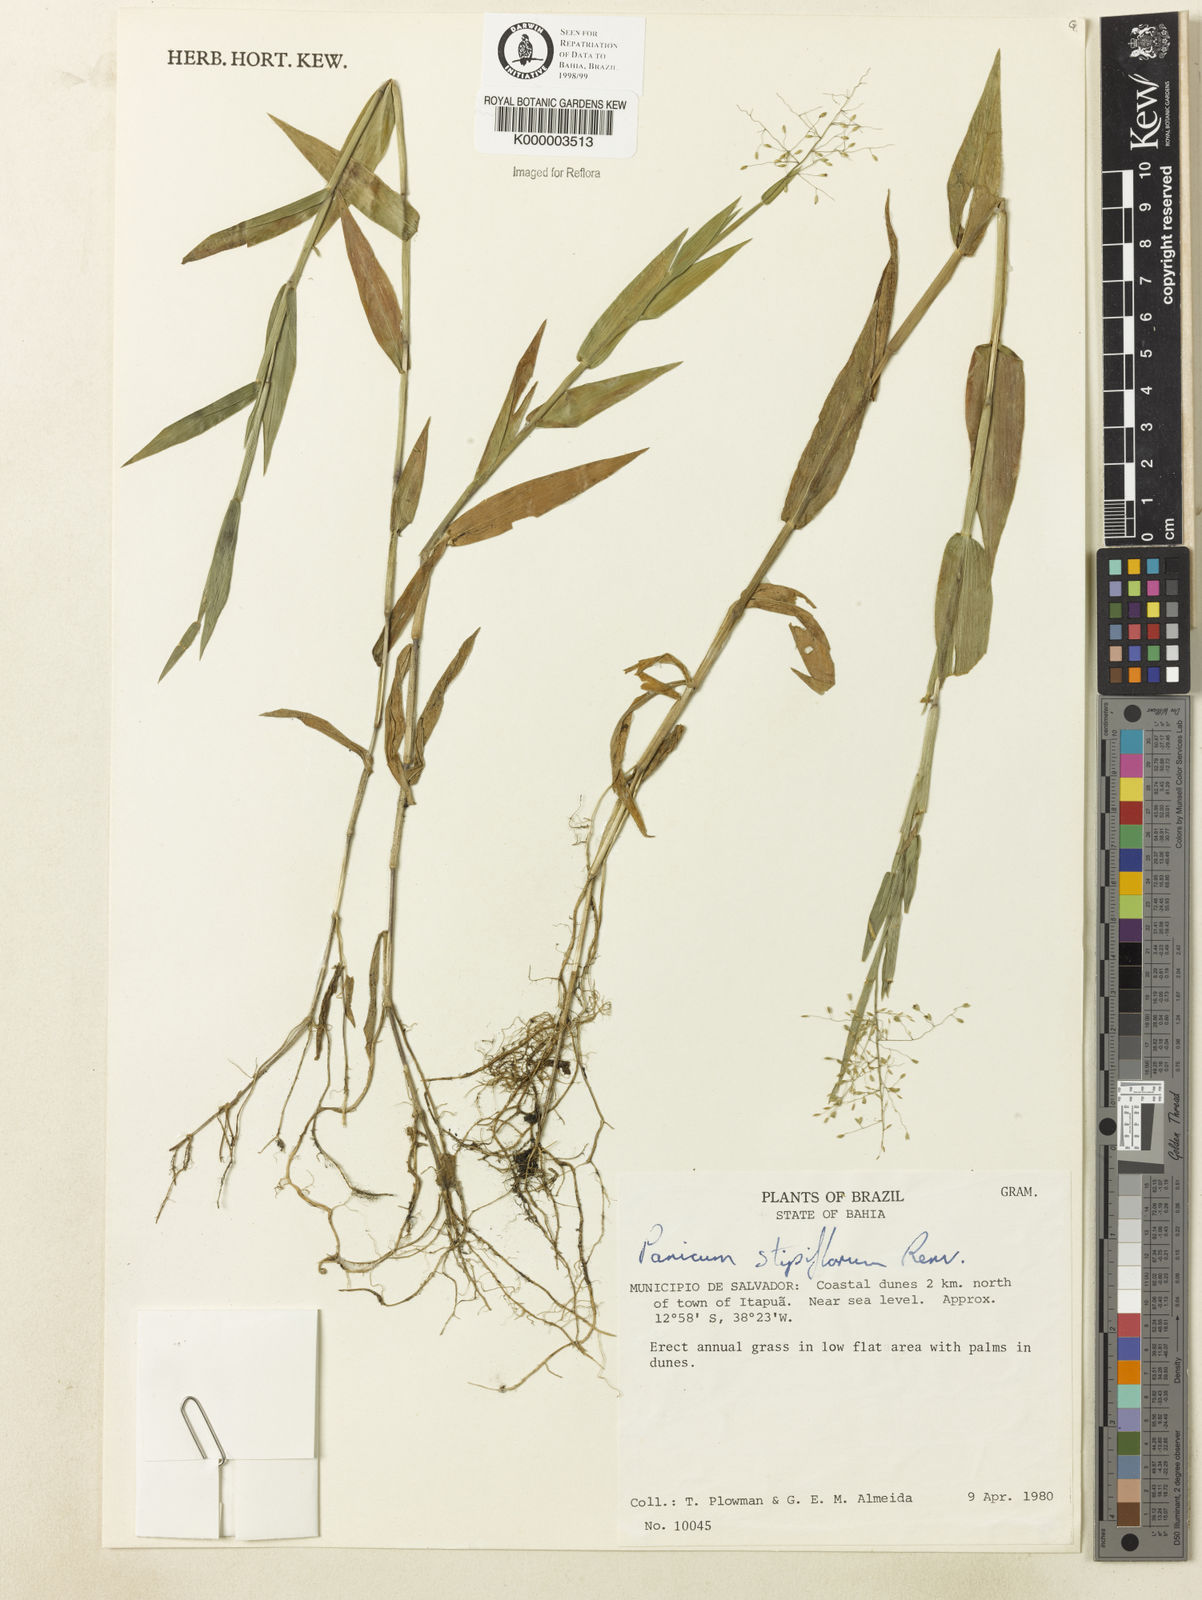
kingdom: Plantae
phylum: Tracheophyta
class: Liliopsida
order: Poales
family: Poaceae
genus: Dichanthelium
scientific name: Dichanthelium stipiflorum
